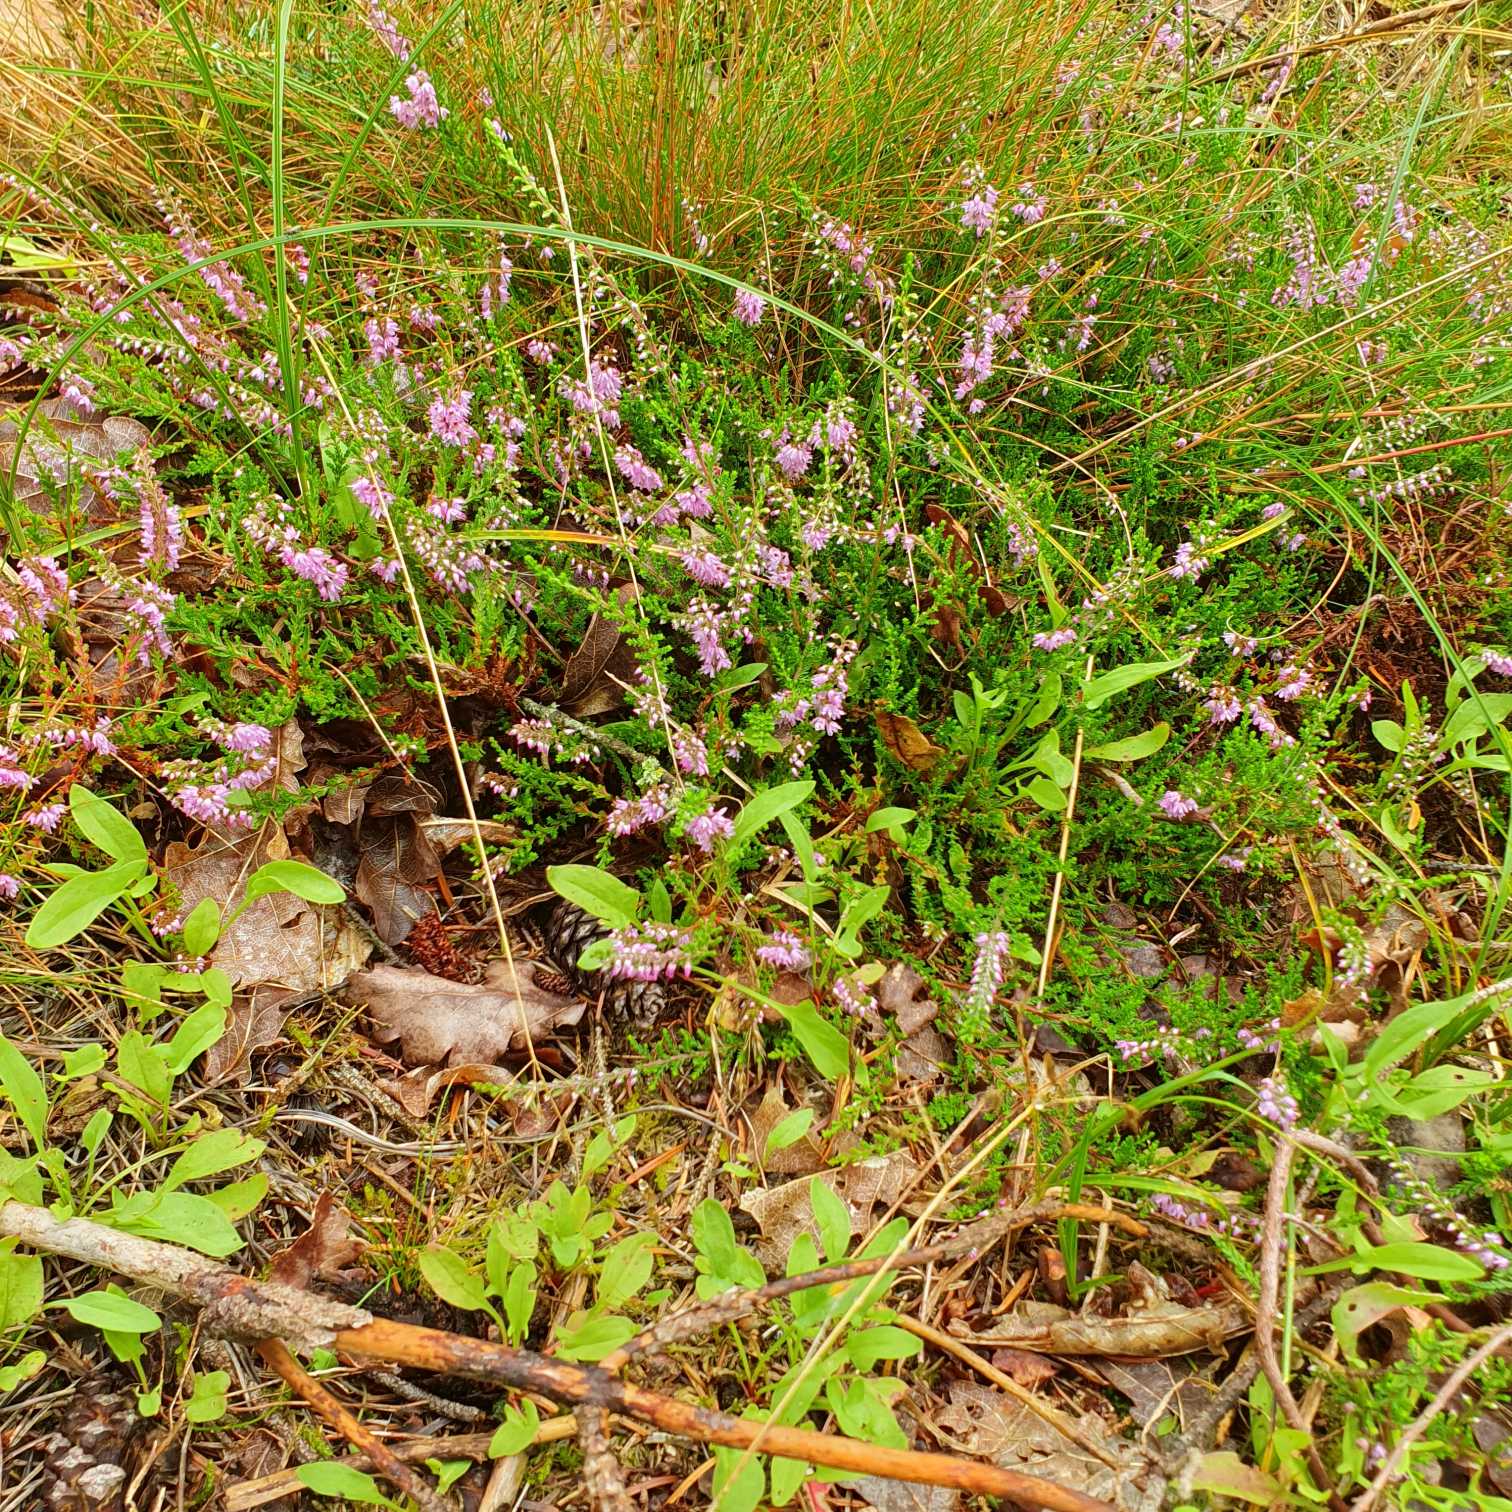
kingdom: Plantae
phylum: Tracheophyta
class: Magnoliopsida
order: Ericales
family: Ericaceae
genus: Calluna
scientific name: Calluna vulgaris
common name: Hedelyng
